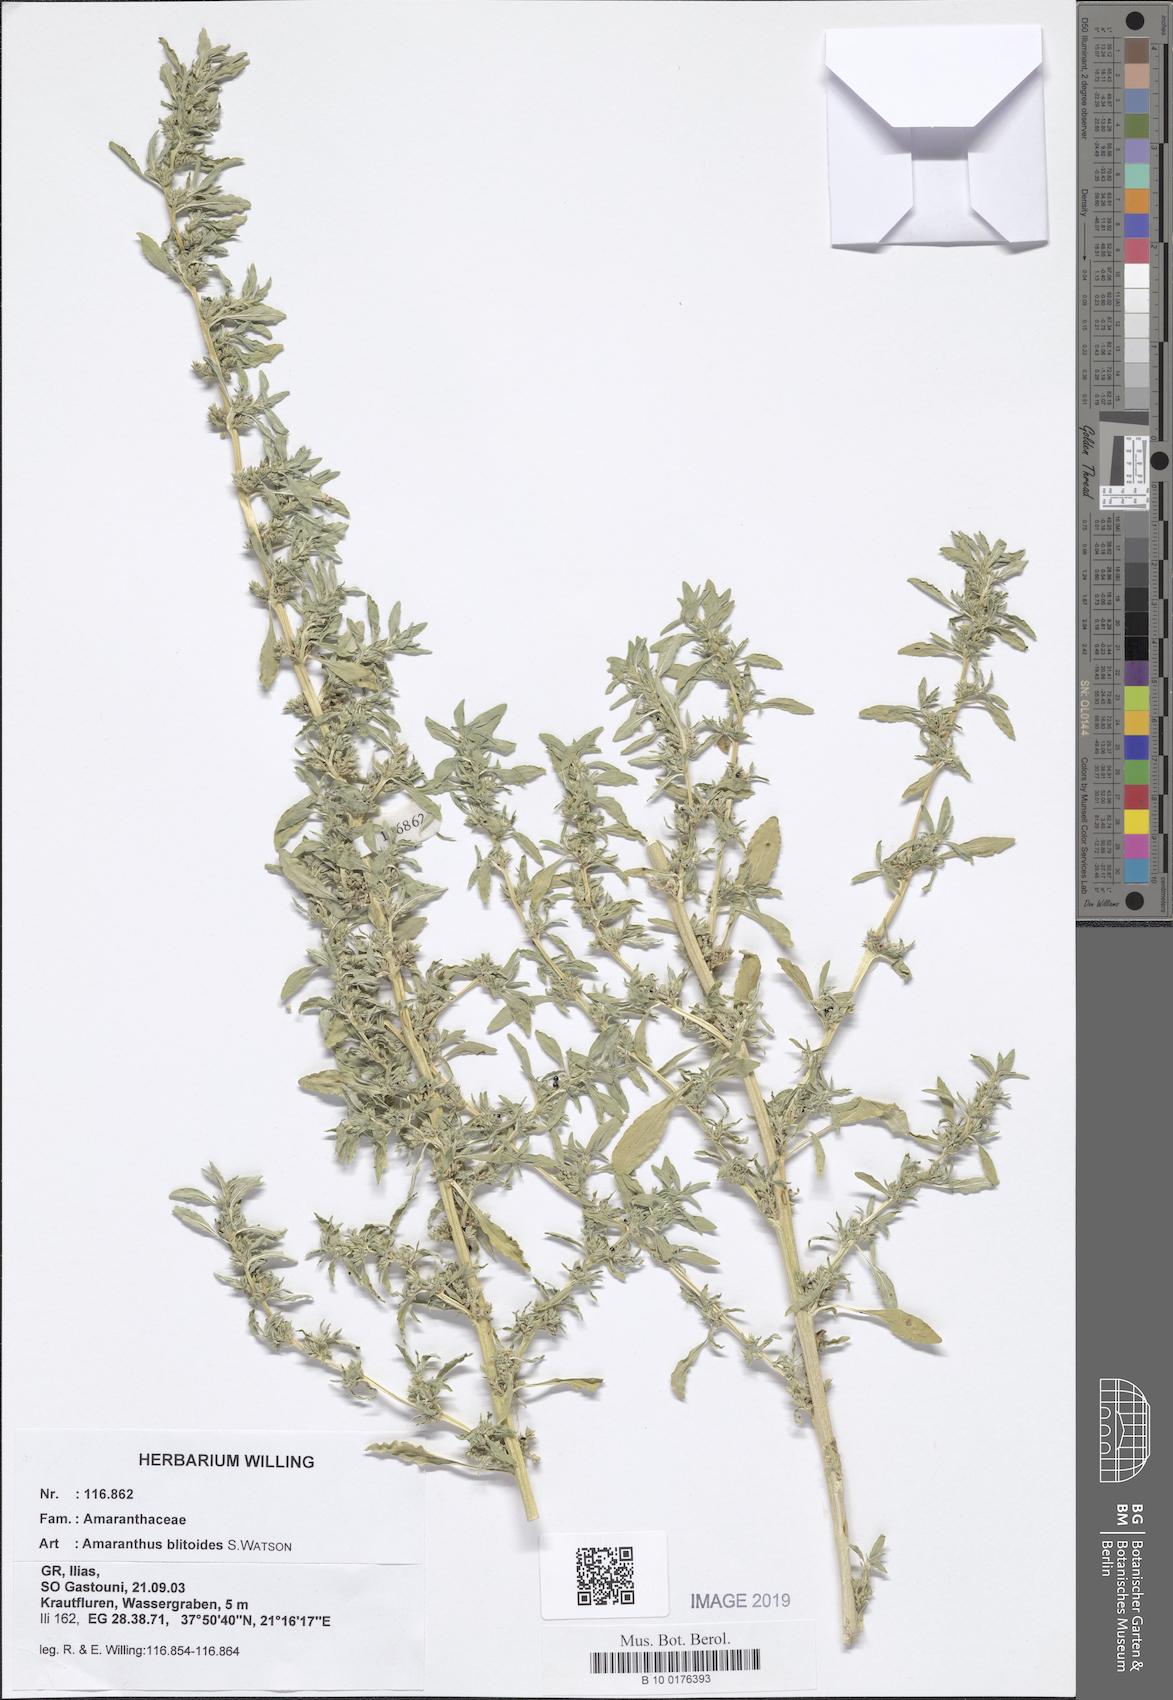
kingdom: Plantae
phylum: Tracheophyta
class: Magnoliopsida
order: Caryophyllales
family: Amaranthaceae
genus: Amaranthus
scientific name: Amaranthus blitoides
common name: Prostrate pigweed
